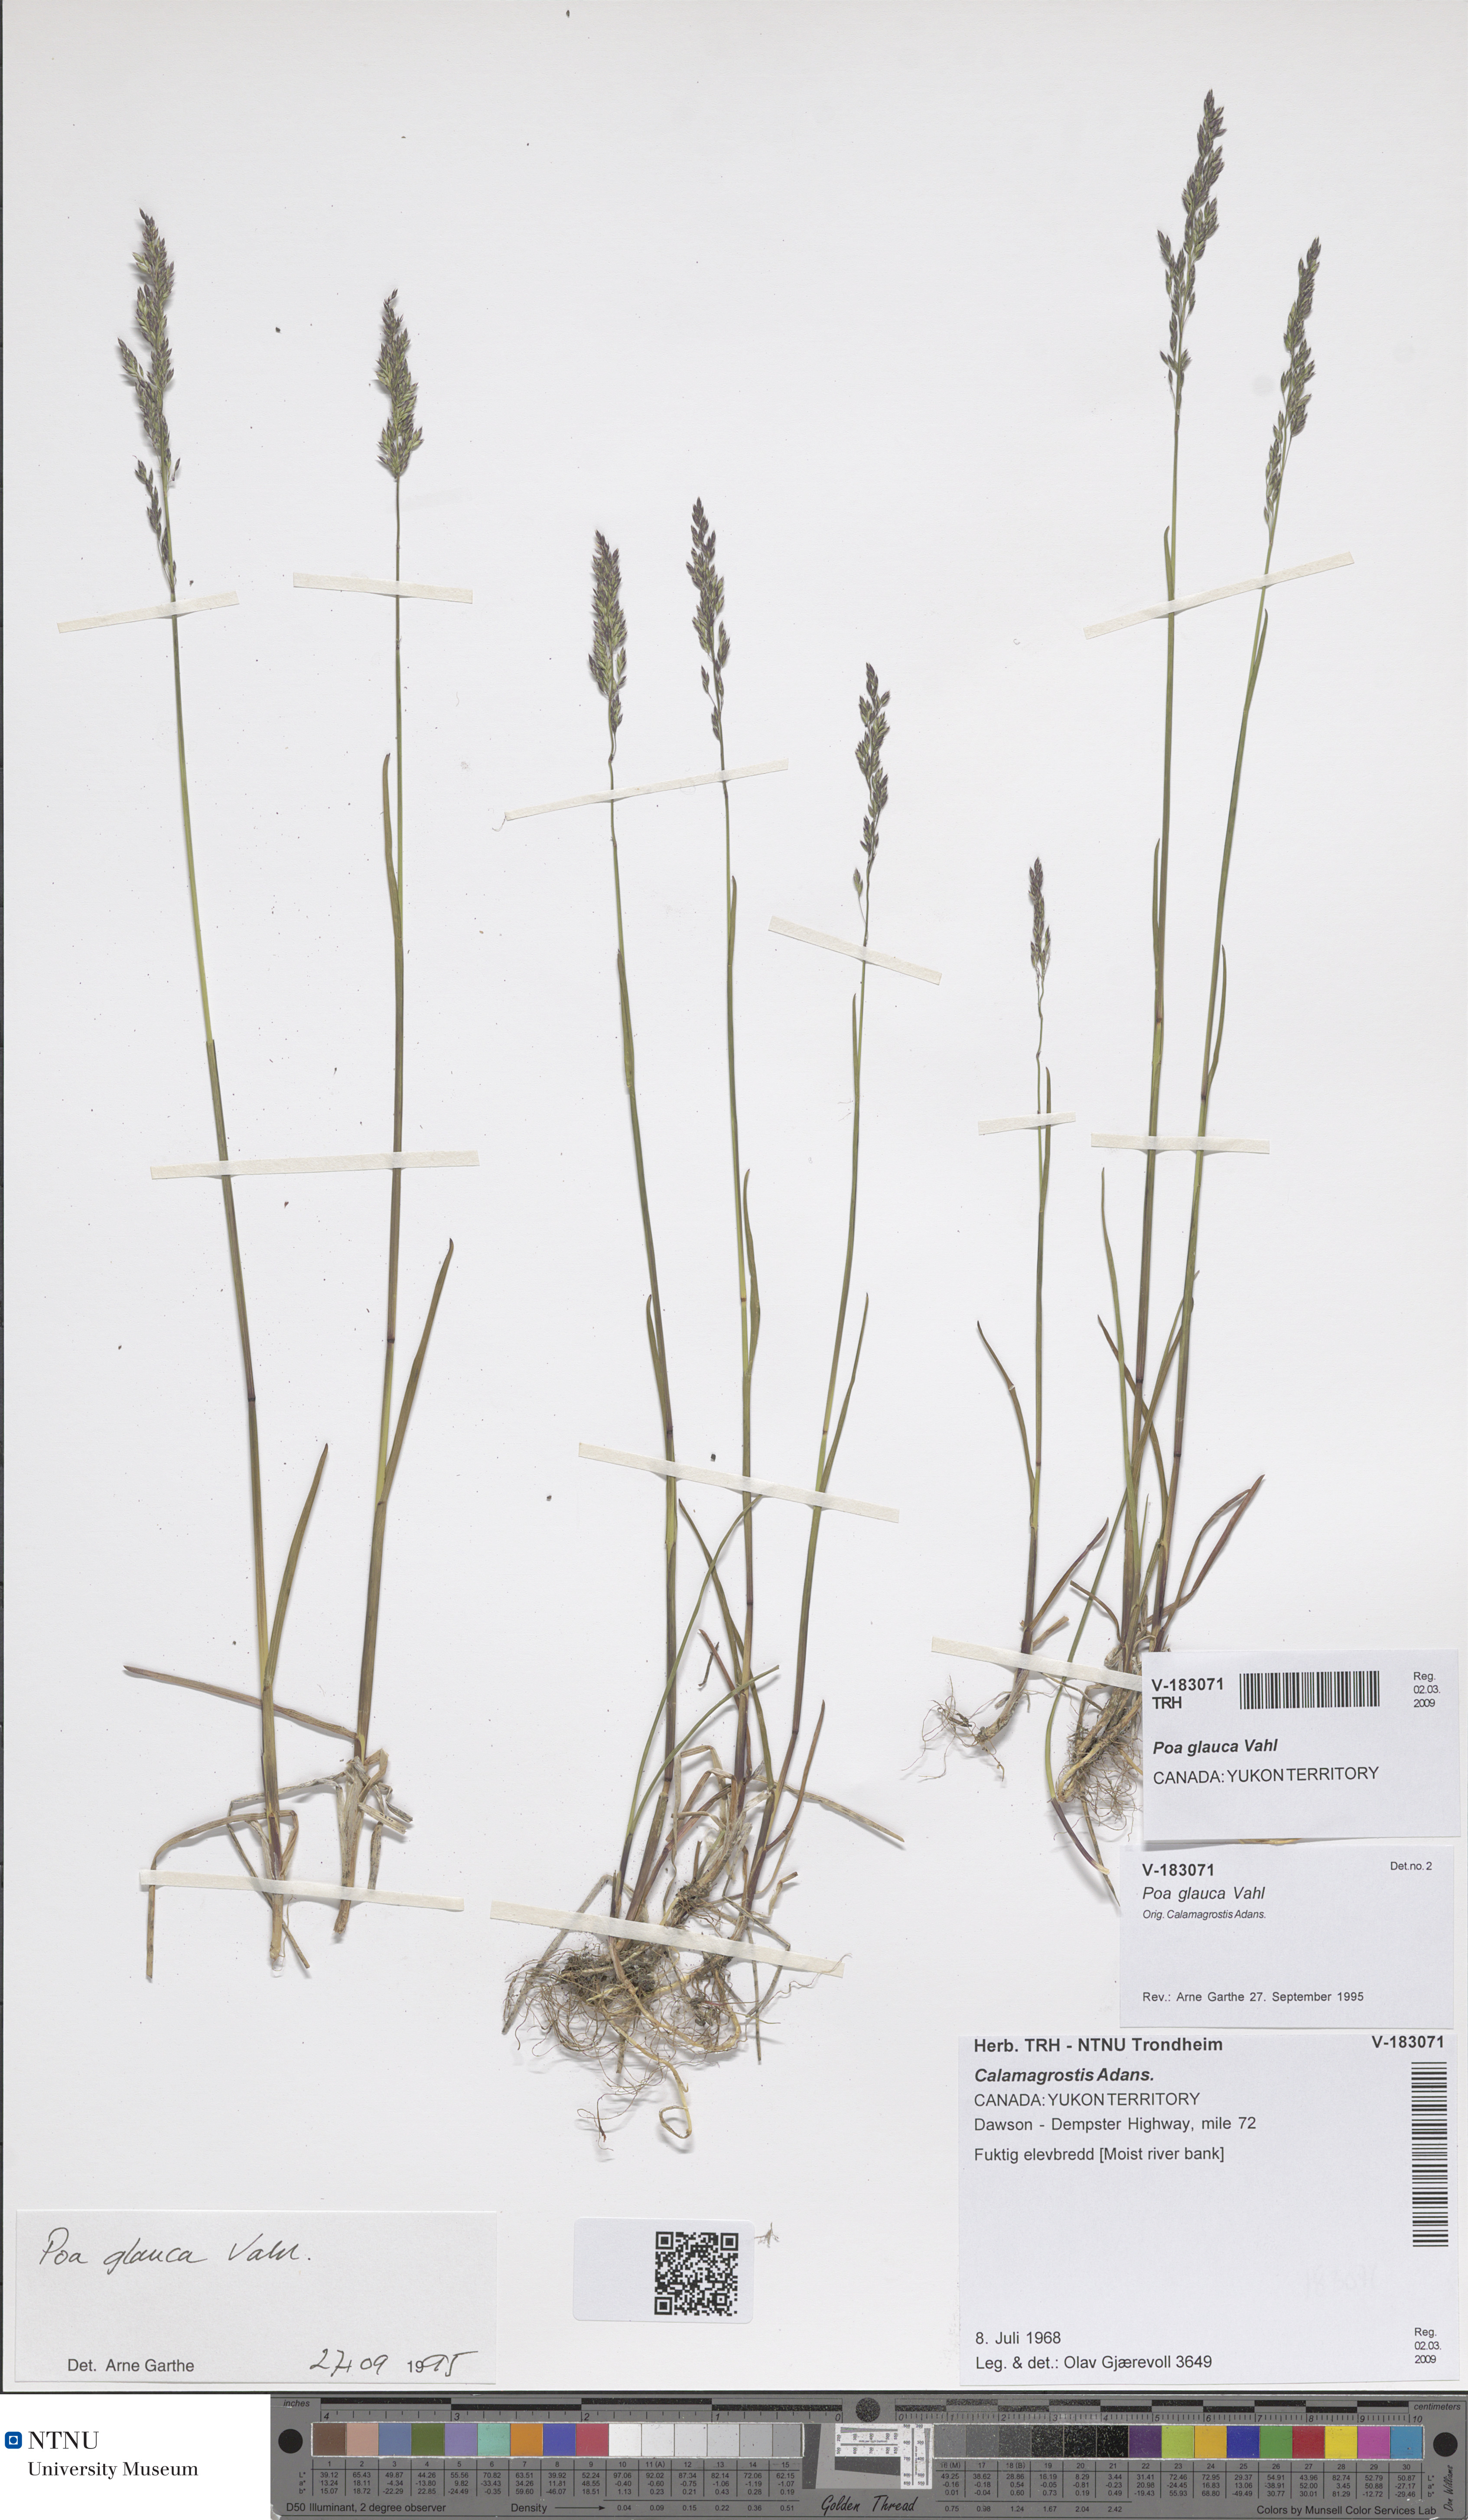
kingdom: Plantae
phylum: Tracheophyta
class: Liliopsida
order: Poales
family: Poaceae
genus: Poa
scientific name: Poa glauca
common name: Glaucous bluegrass
